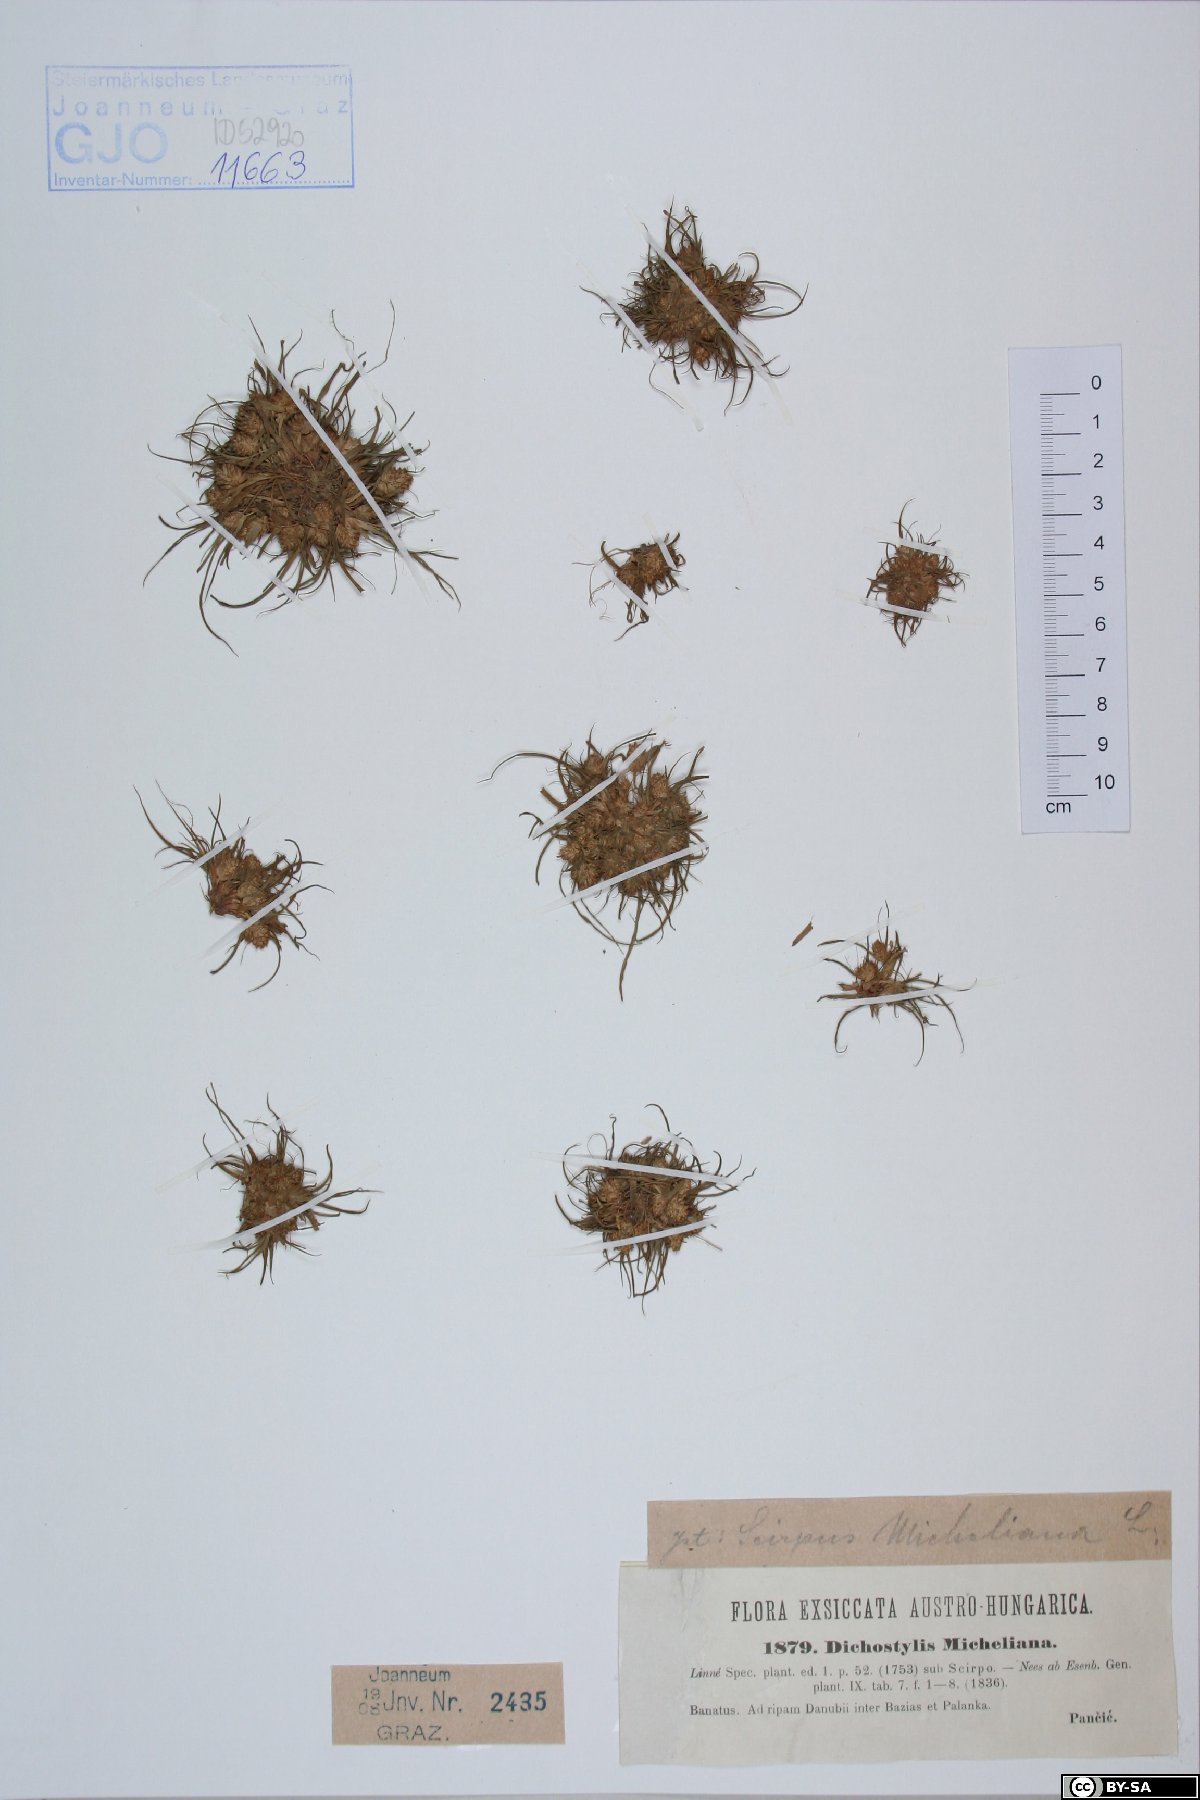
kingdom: Plantae
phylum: Tracheophyta
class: Liliopsida
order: Poales
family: Cyperaceae
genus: Cyperus
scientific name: Cyperus michelianus
